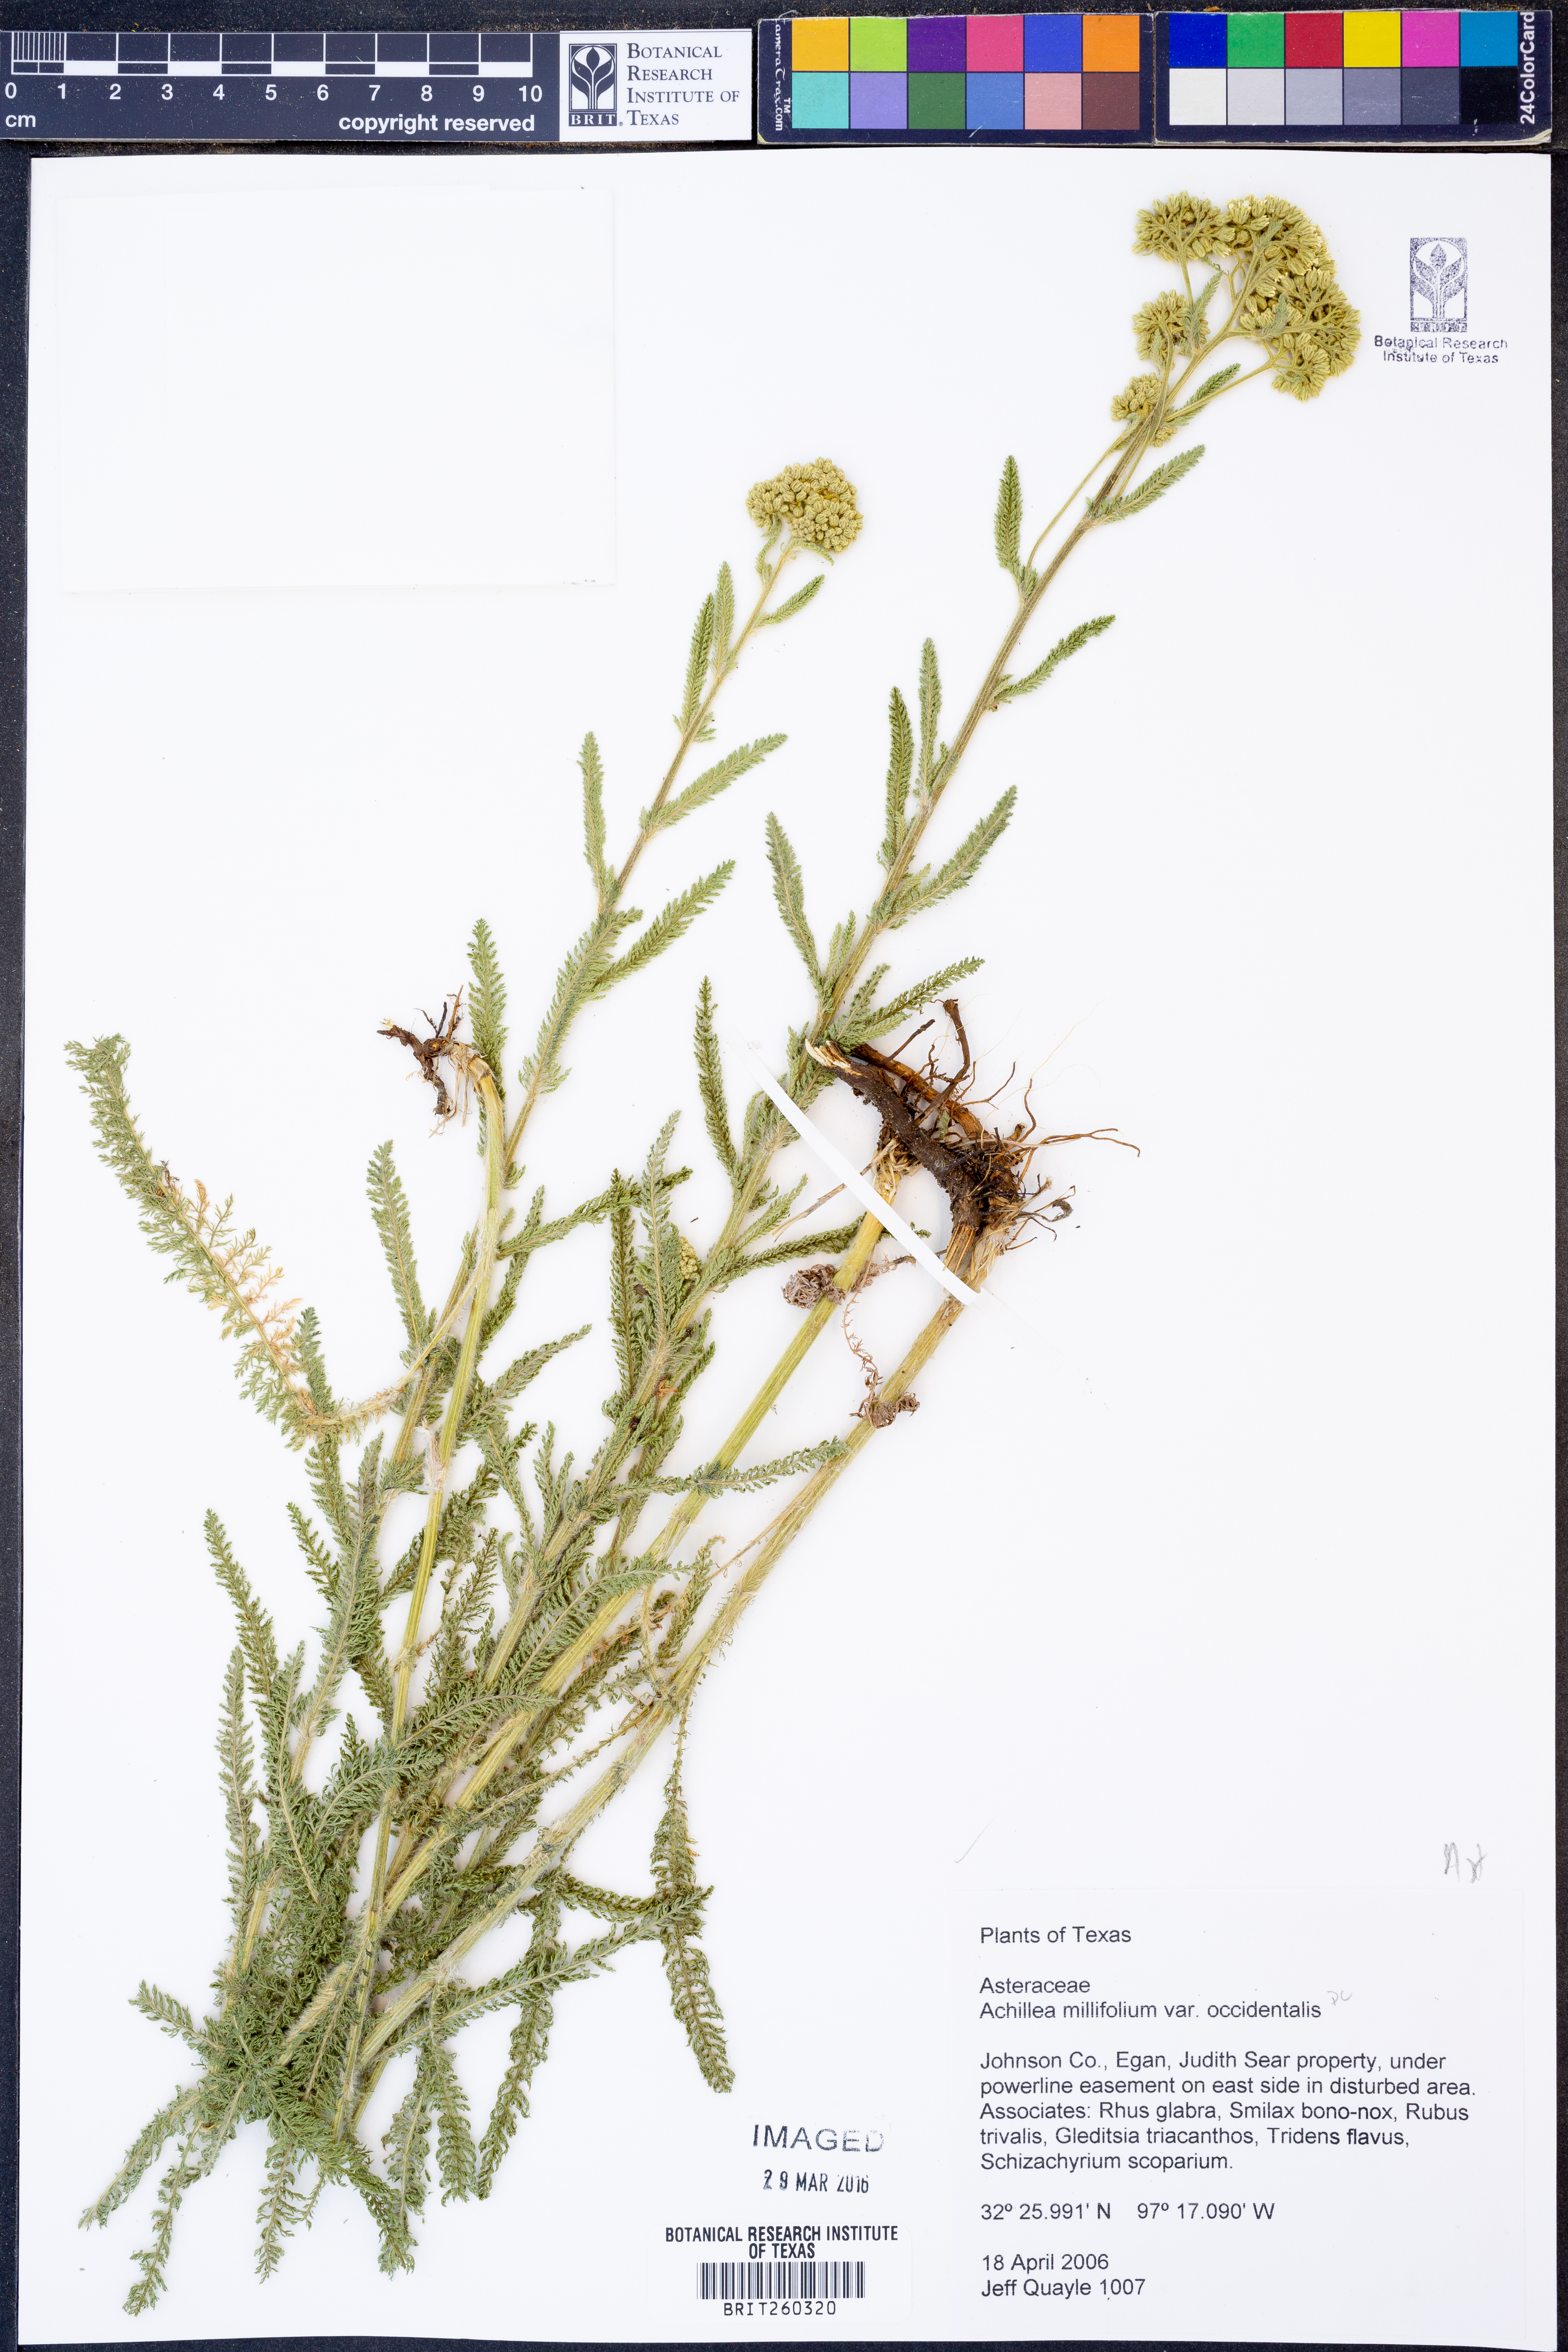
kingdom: Plantae
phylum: Tracheophyta
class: Magnoliopsida
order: Asterales
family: Asteraceae
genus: Achillea
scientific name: Achillea millefolium
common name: Yarrow
